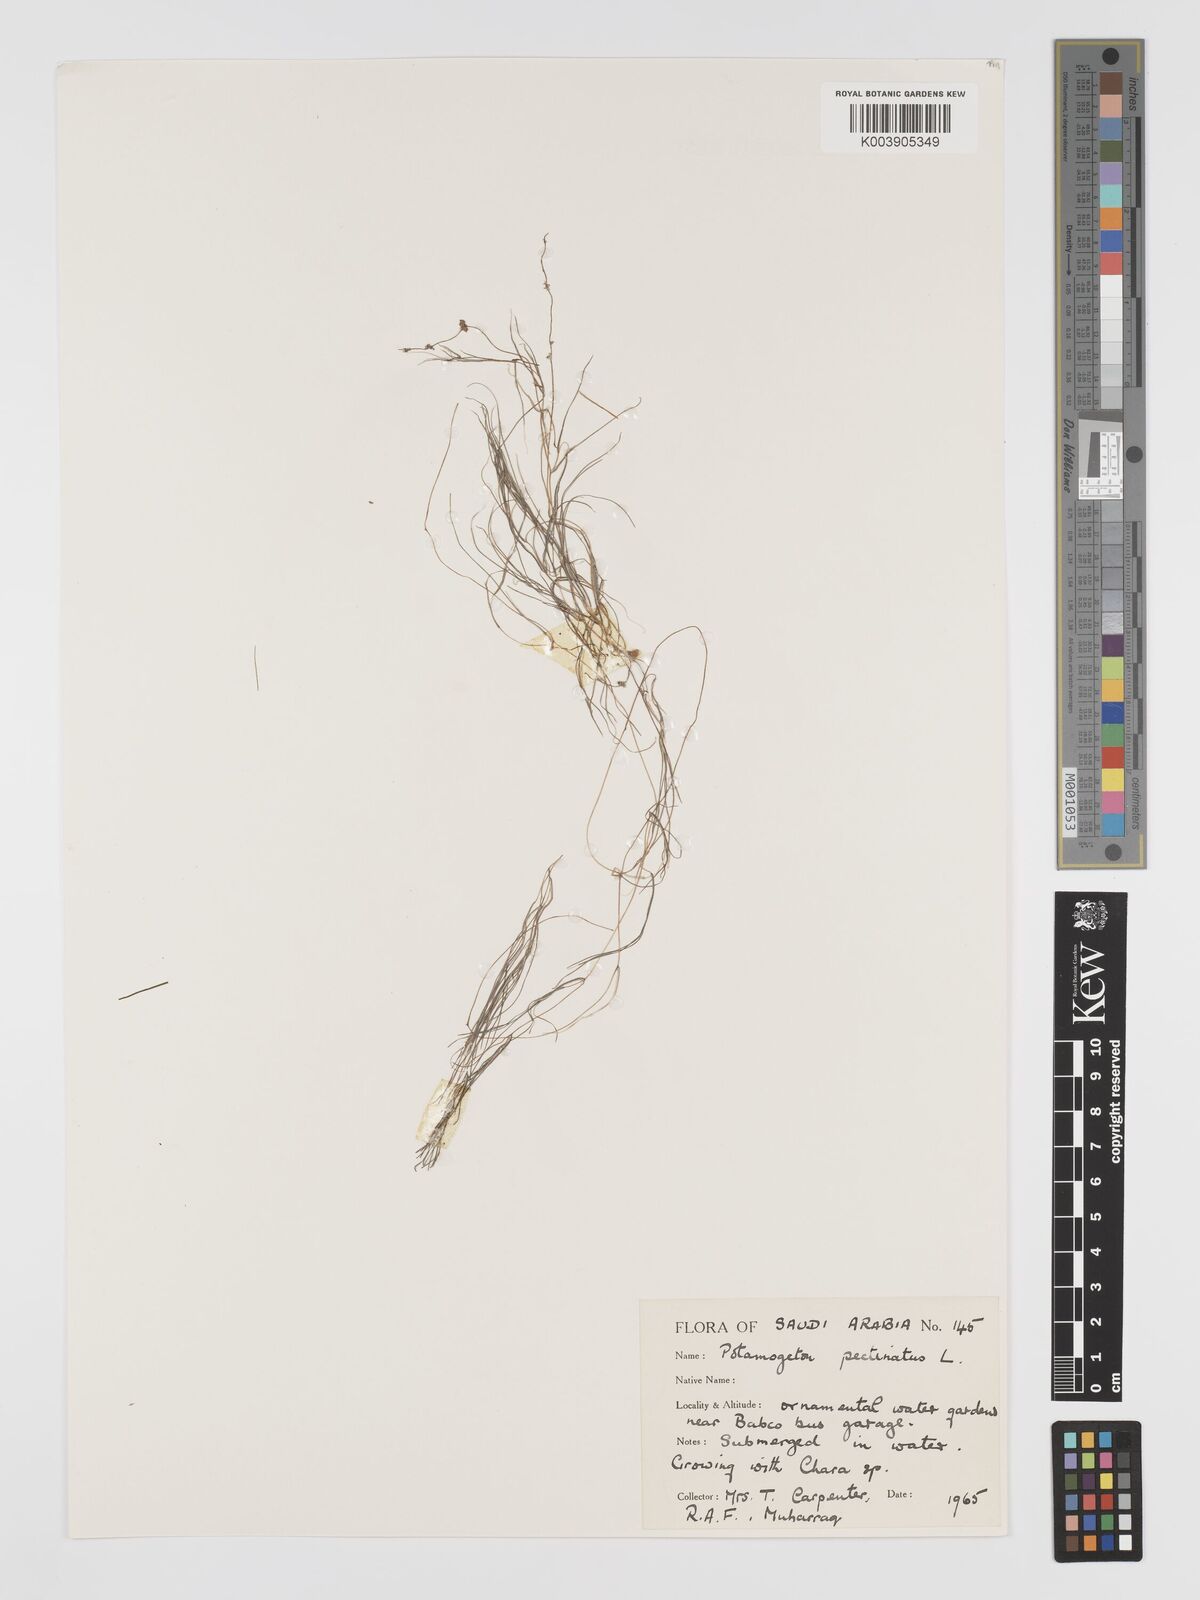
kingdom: Plantae
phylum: Tracheophyta
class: Liliopsida
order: Alismatales
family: Potamogetonaceae
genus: Stuckenia
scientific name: Stuckenia pectinata
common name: Sago pondweed
